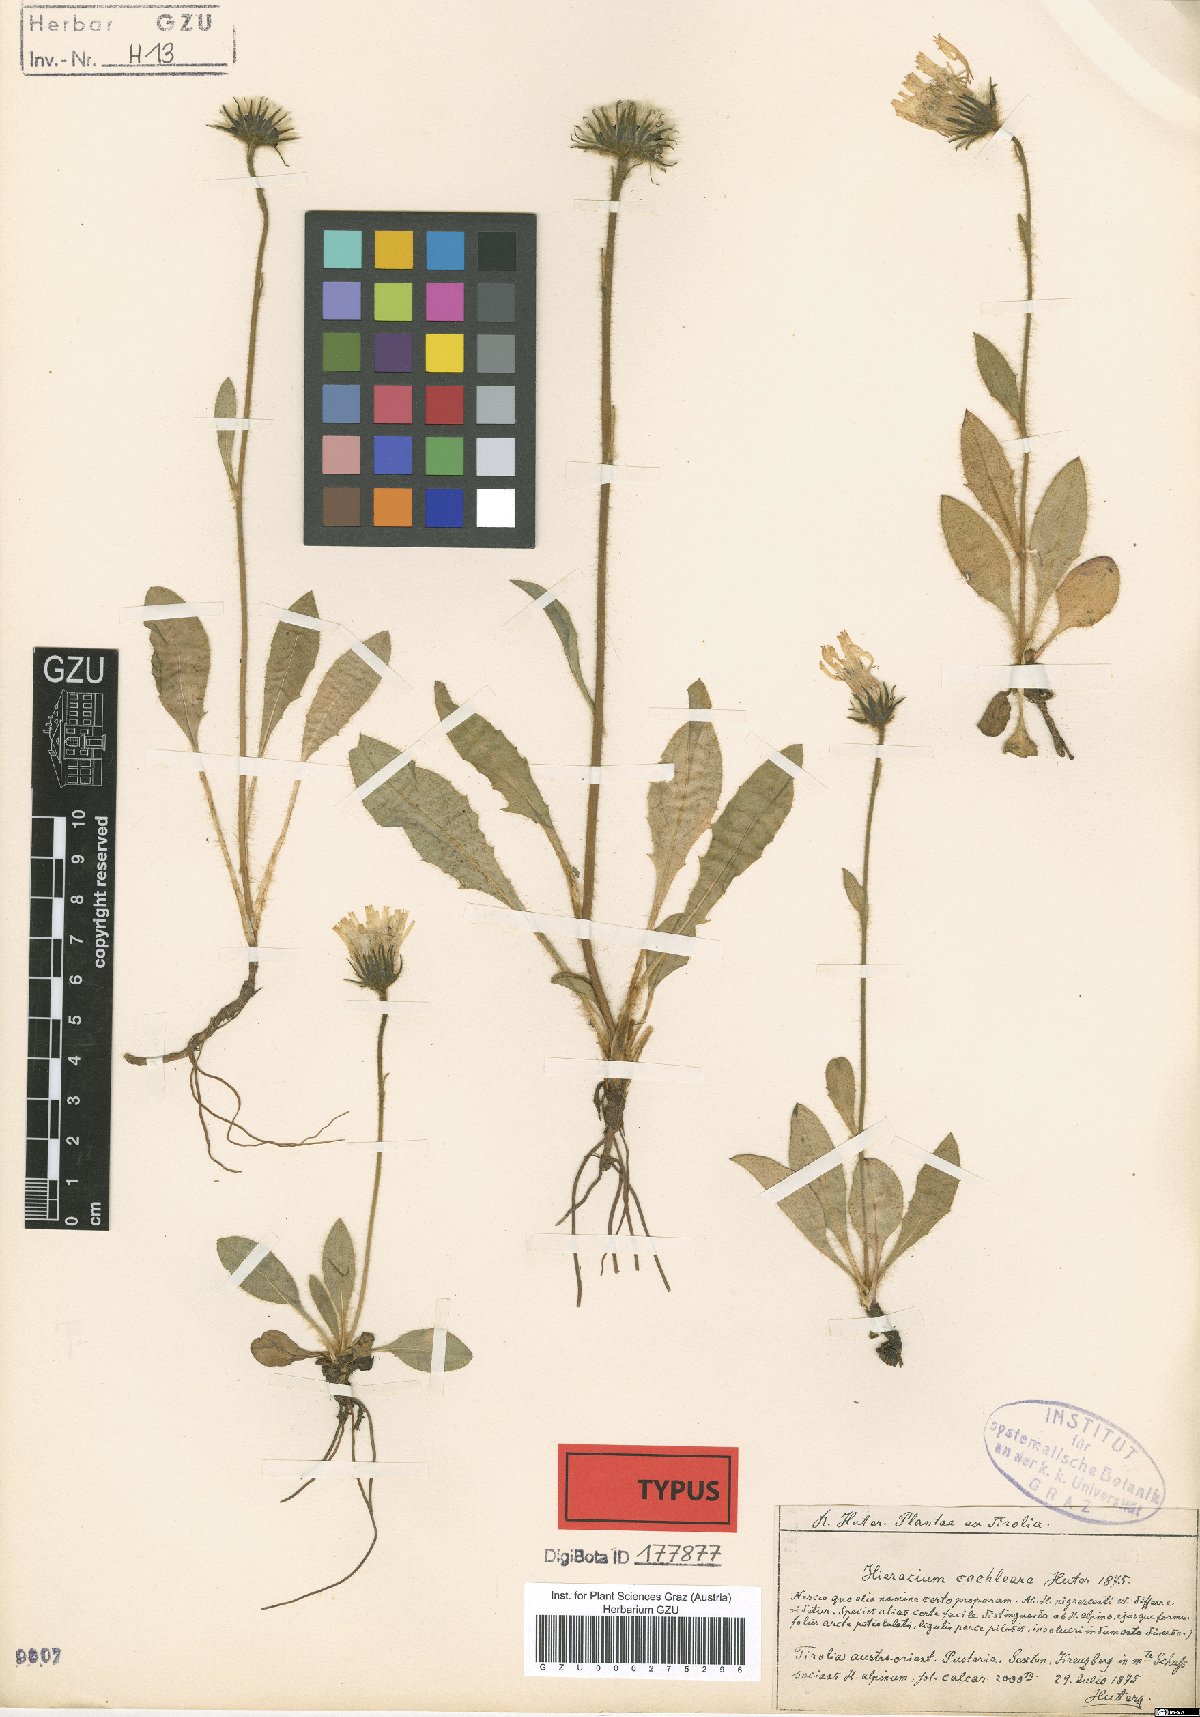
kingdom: Plantae
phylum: Tracheophyta
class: Magnoliopsida
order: Asterales
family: Asteraceae
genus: Hieracium
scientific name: Hieracium nigrescens
